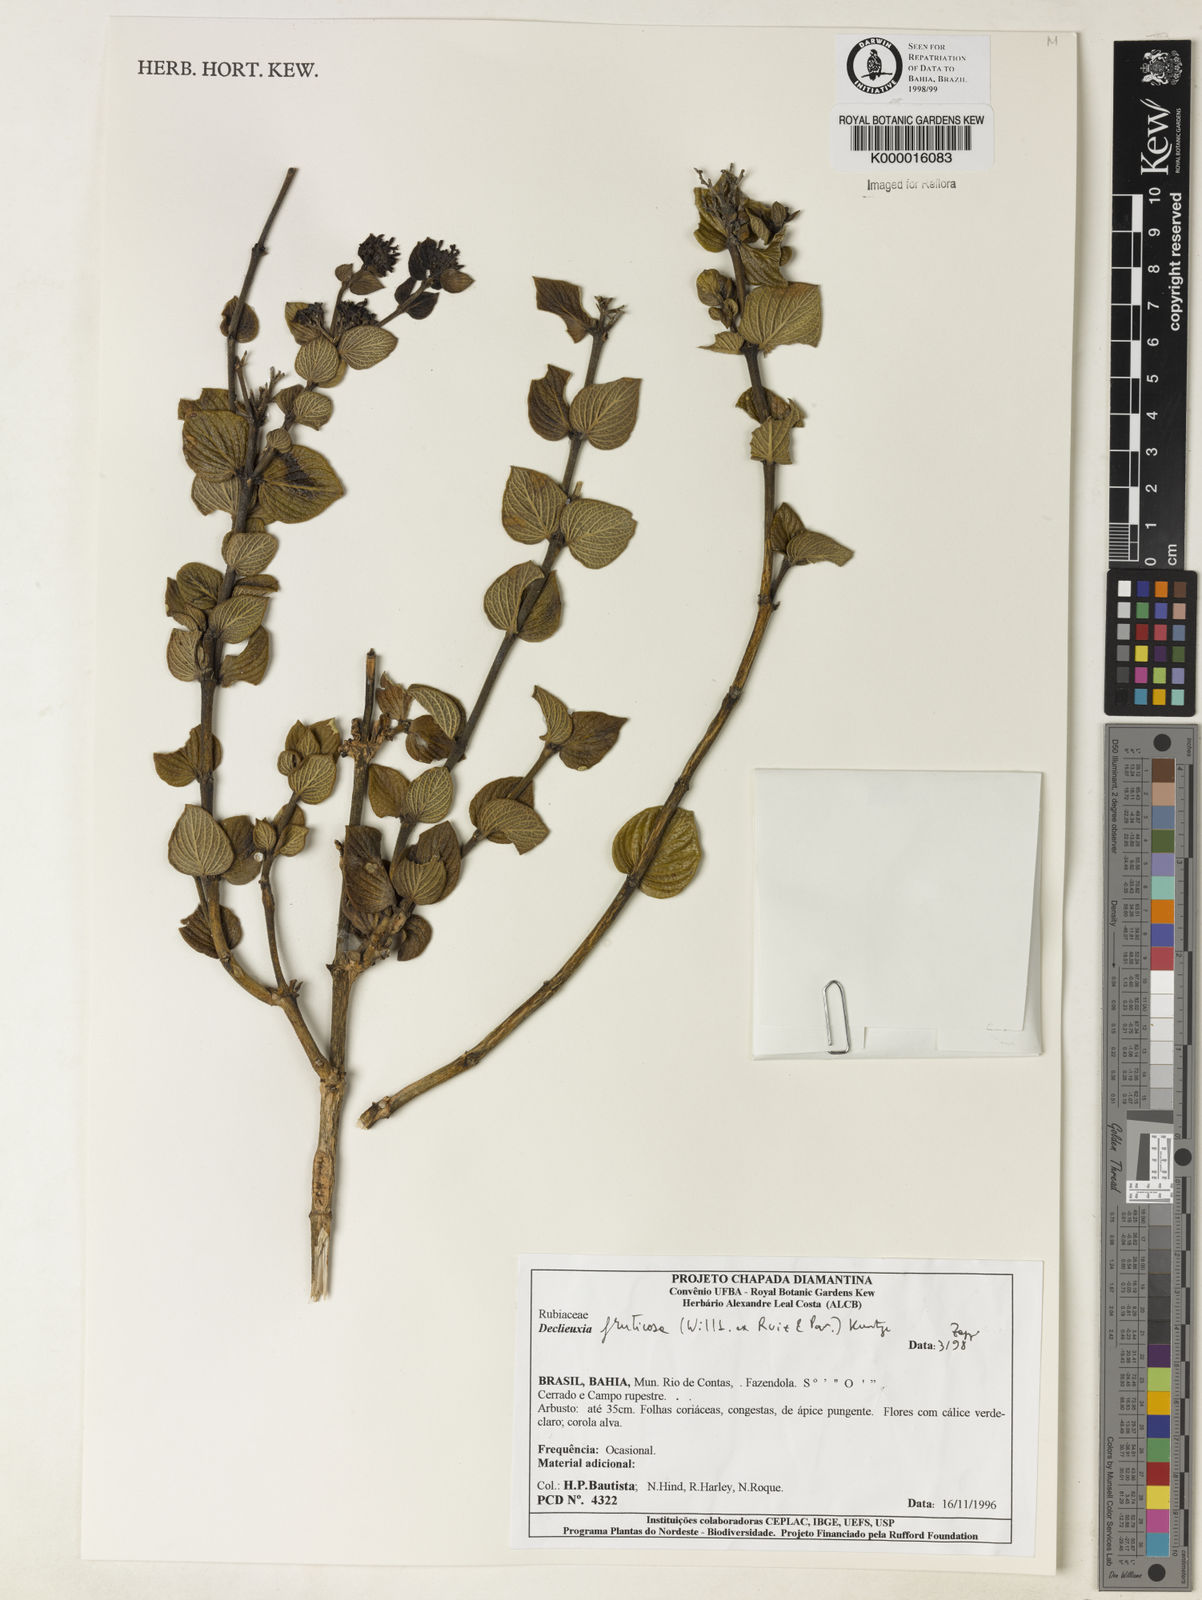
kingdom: Plantae
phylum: Tracheophyta
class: Magnoliopsida
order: Gentianales
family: Rubiaceae
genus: Declieuxia
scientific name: Declieuxia fruticosa
